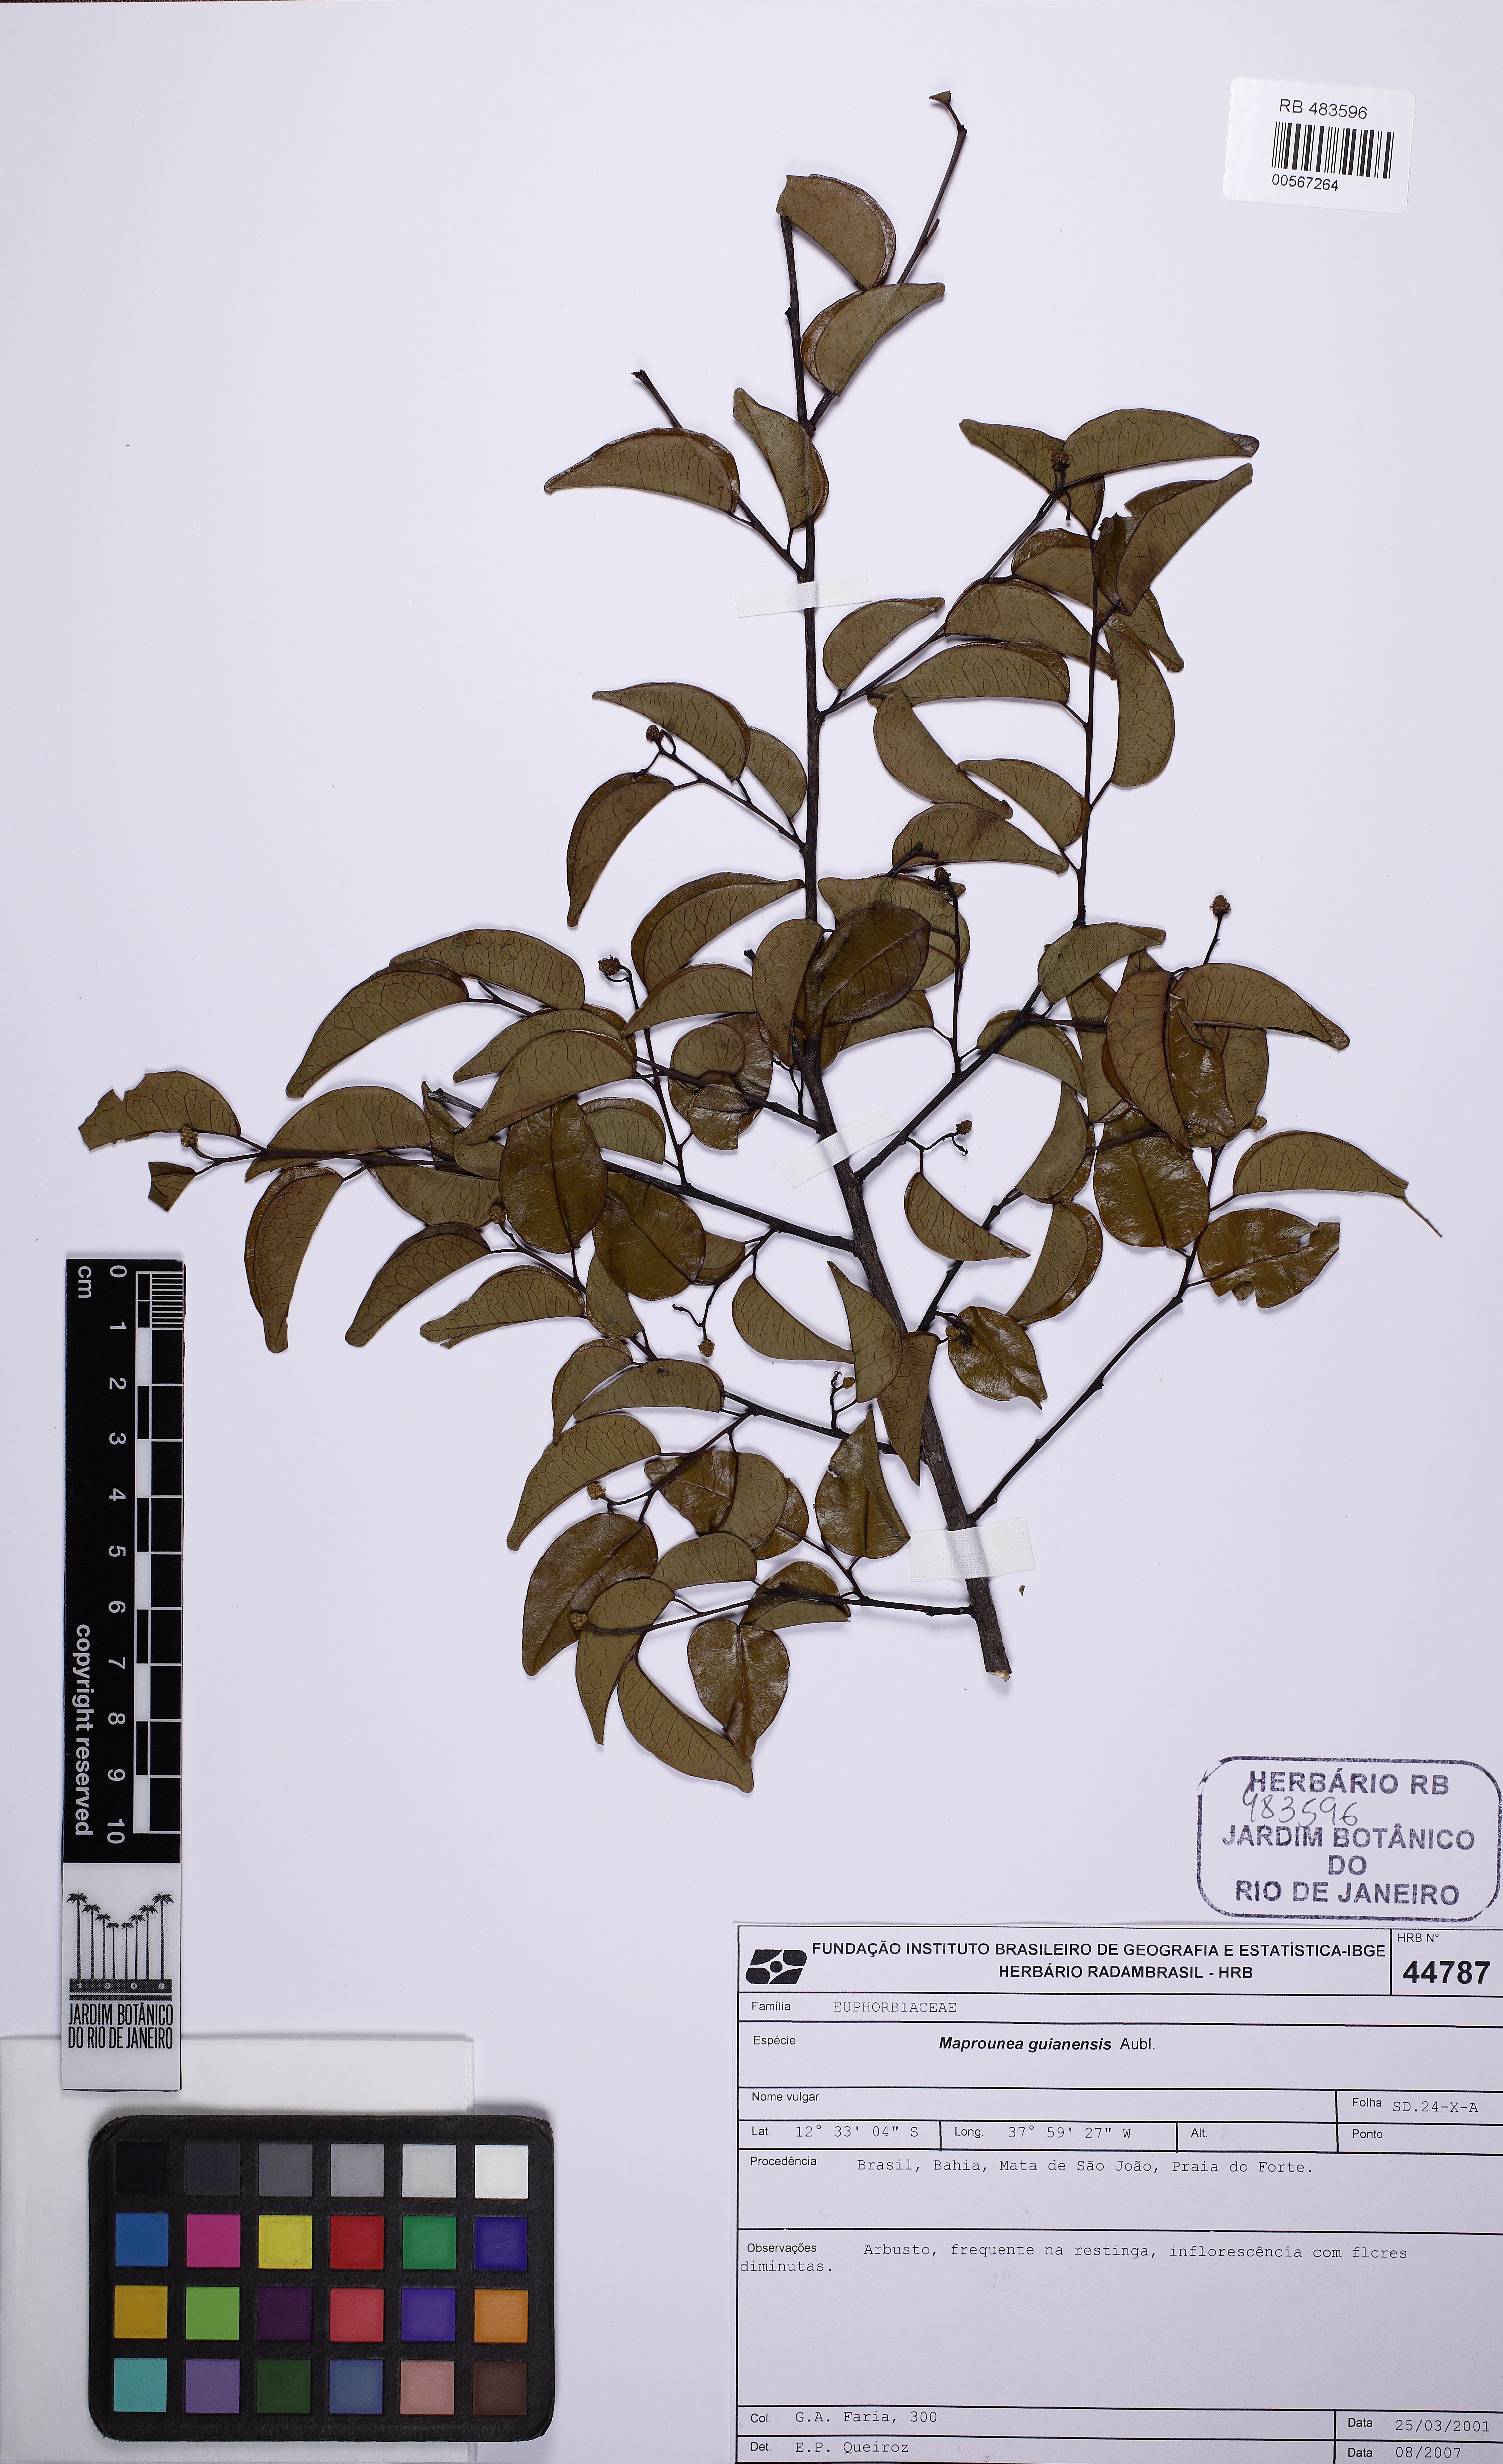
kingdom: Plantae
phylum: Tracheophyta
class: Magnoliopsida
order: Malpighiales
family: Euphorbiaceae
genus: Maprounea
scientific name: Maprounea africana
